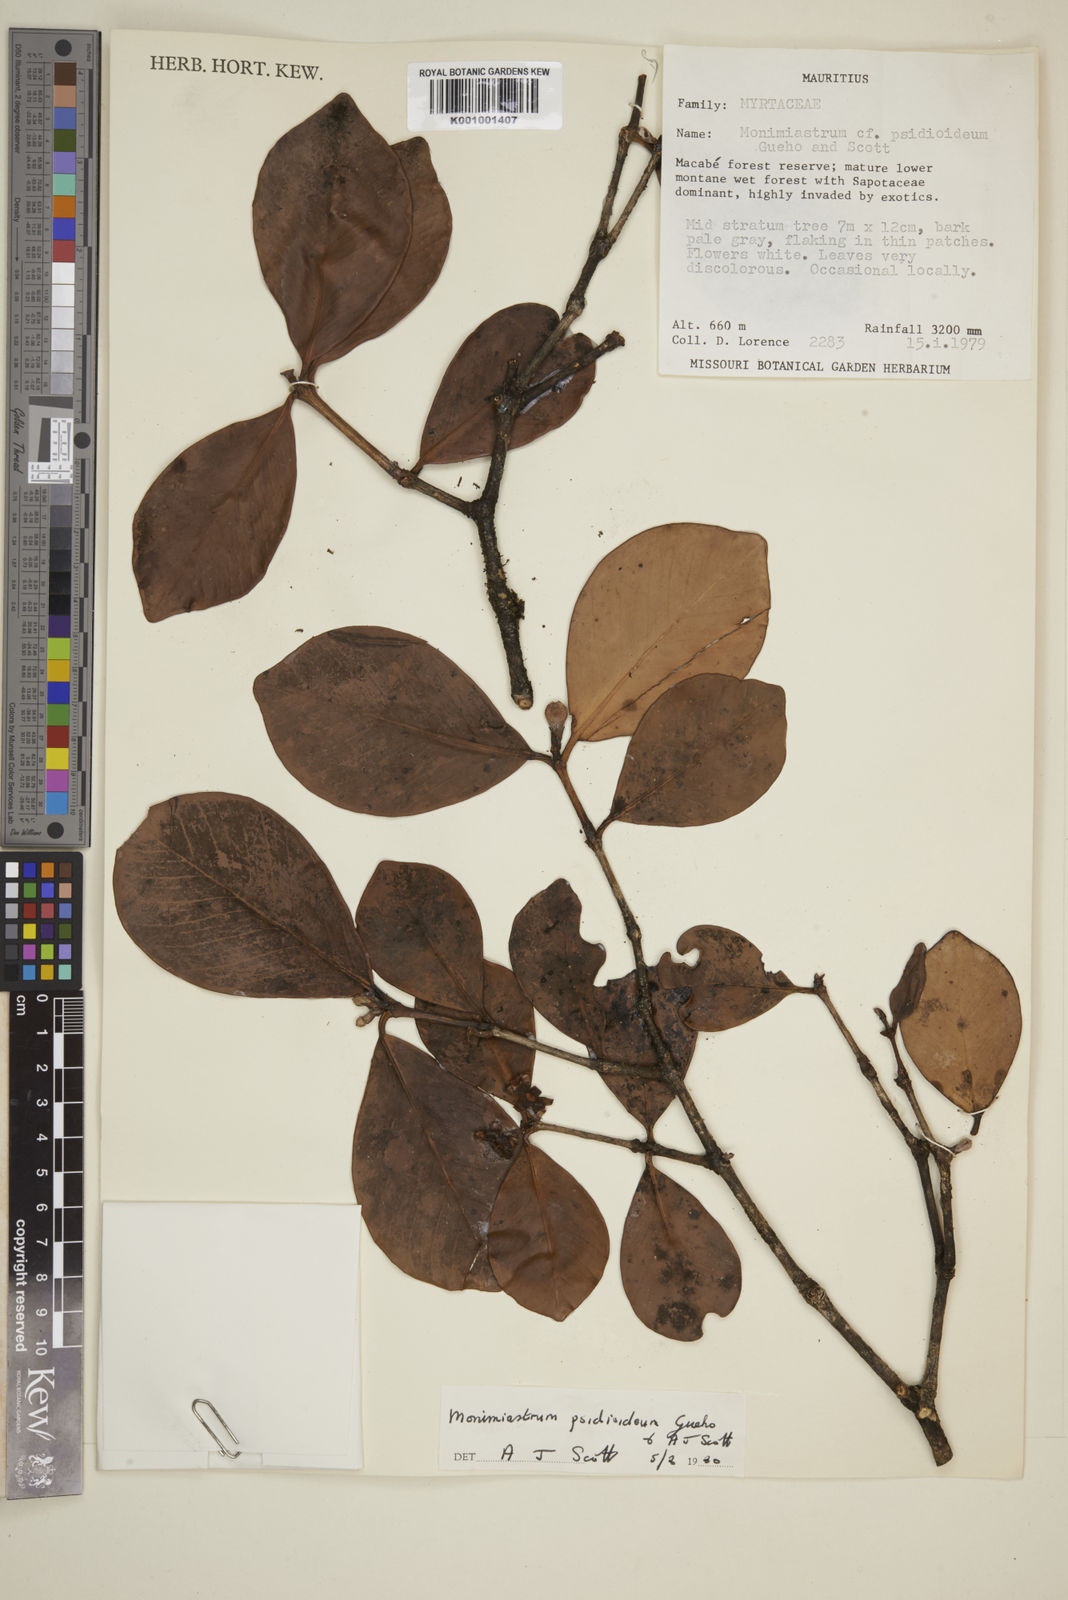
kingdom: Plantae
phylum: Tracheophyta
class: Magnoliopsida
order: Myrtales
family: Myrtaceae
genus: Eugenia
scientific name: Eugenia psidioidea
